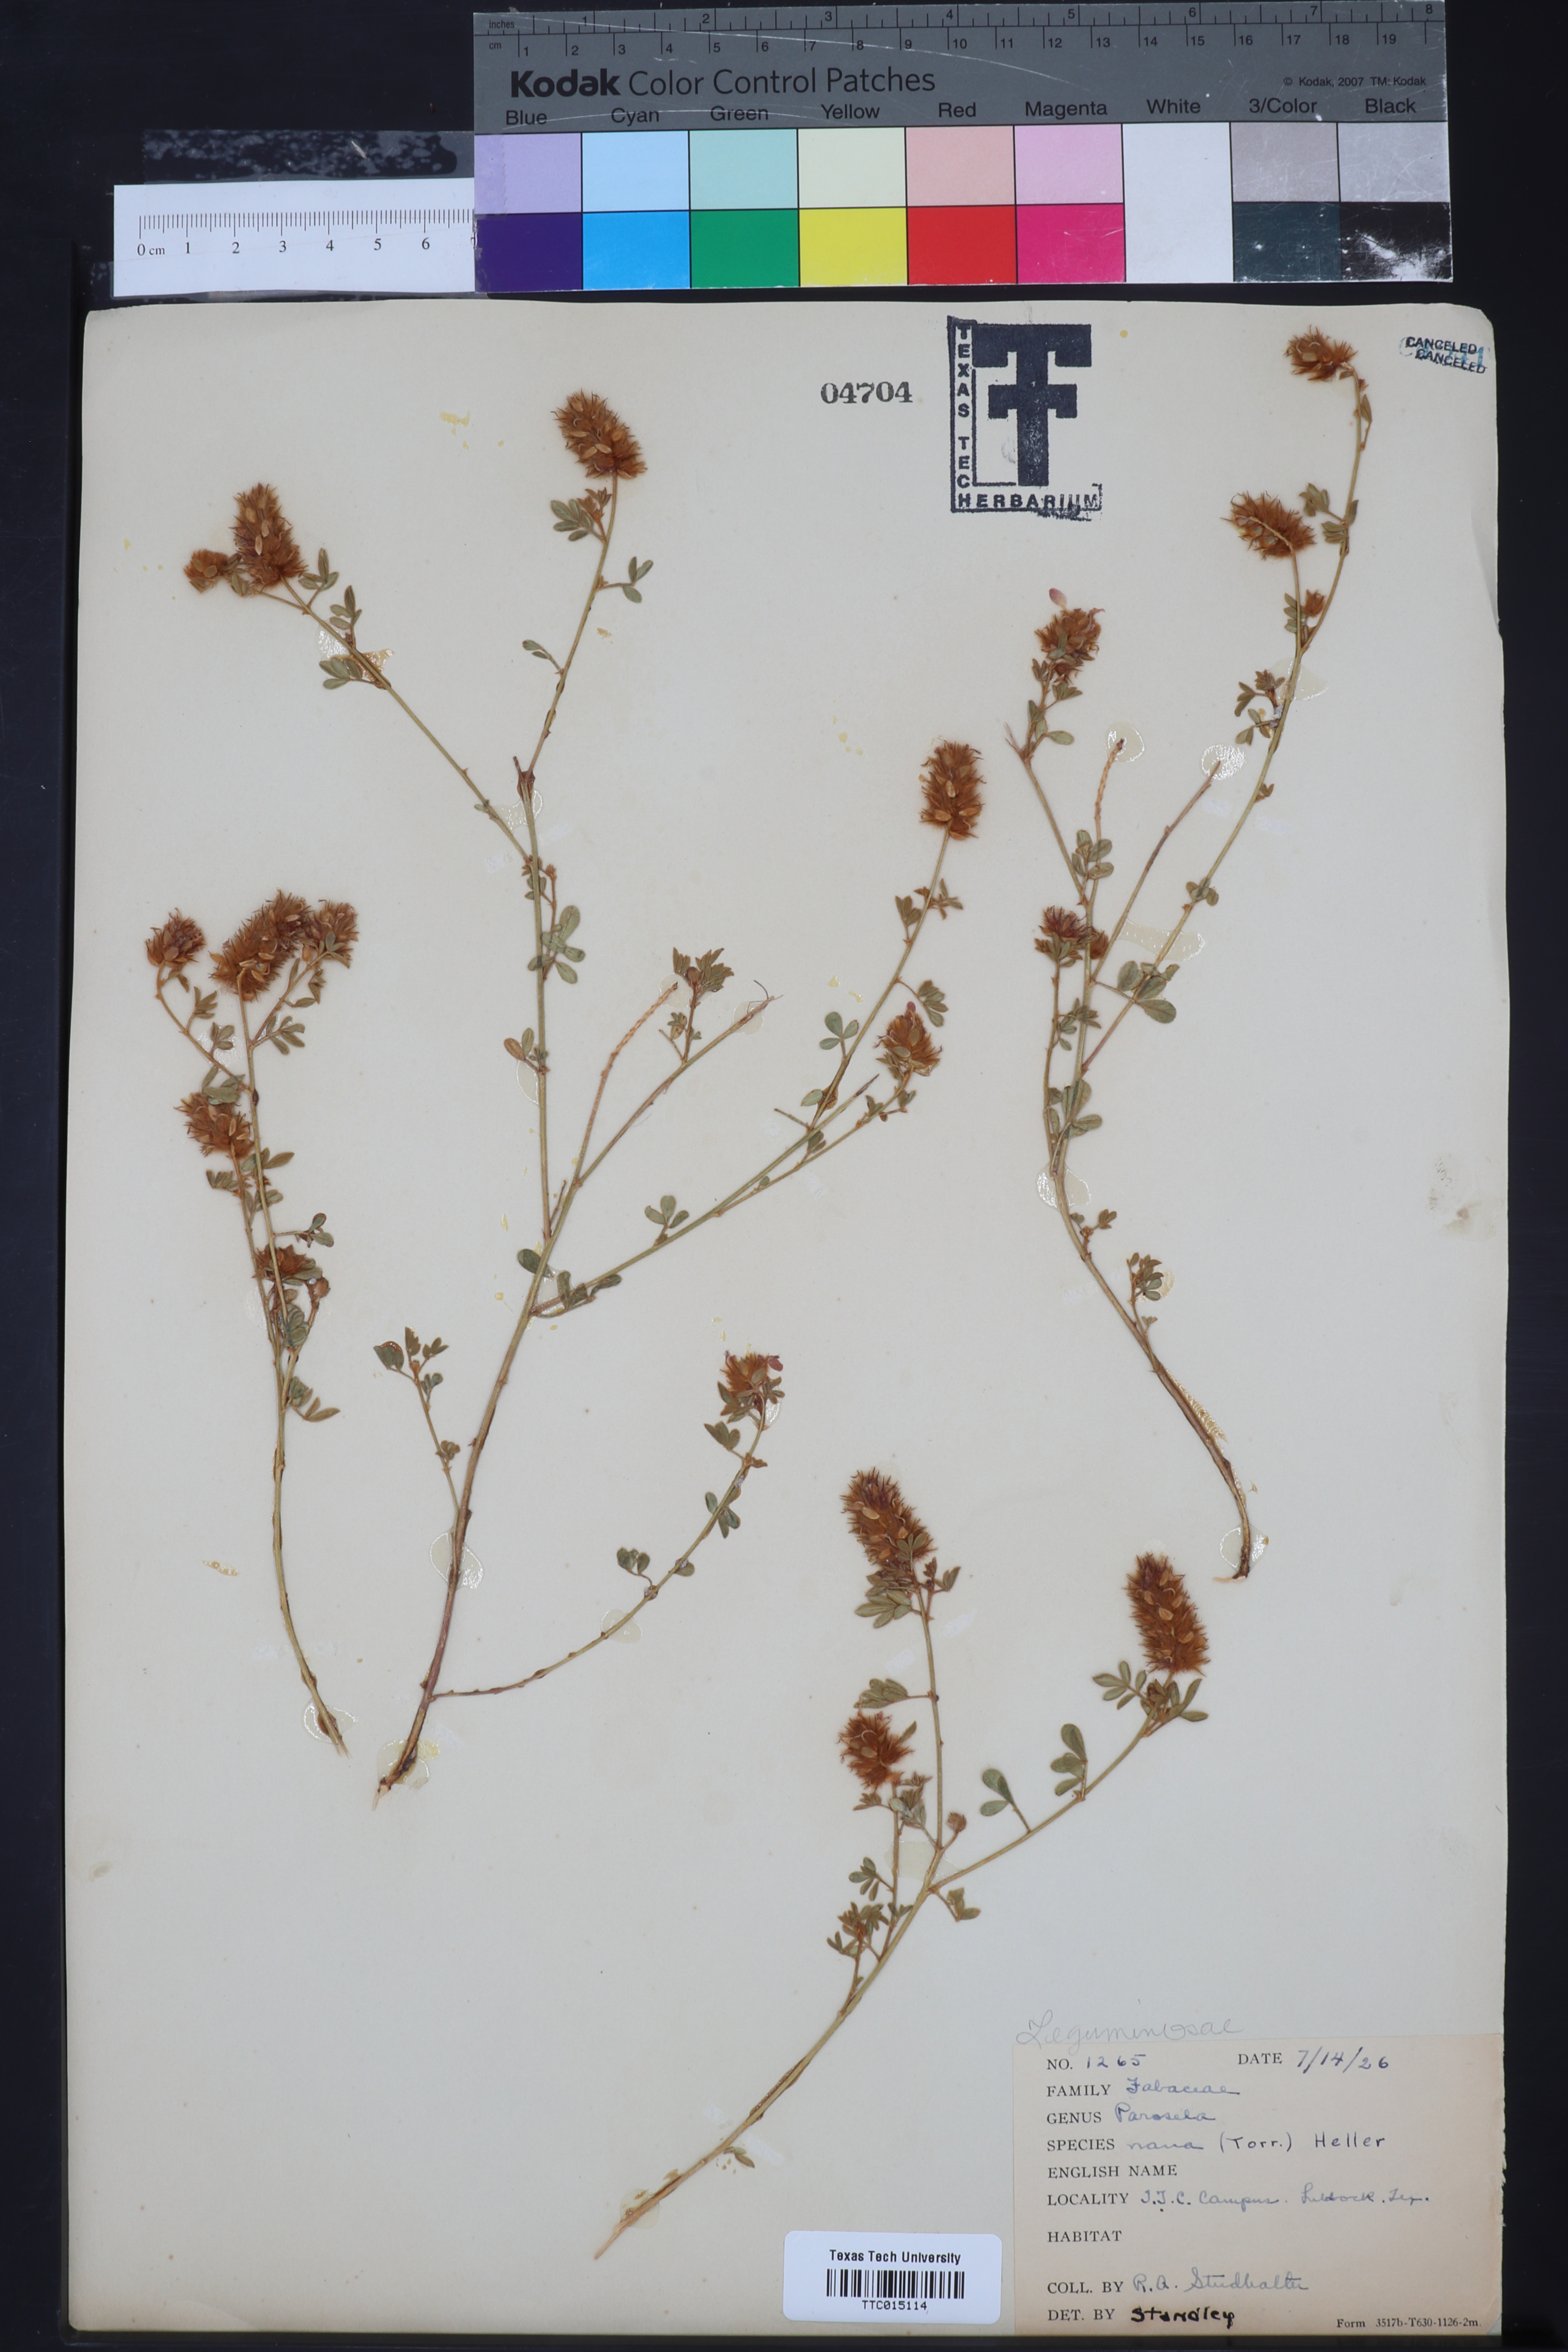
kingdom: Plantae
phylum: Tracheophyta
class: Magnoliopsida
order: Fabales
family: Fabaceae
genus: Dalea
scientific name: Dalea nana
